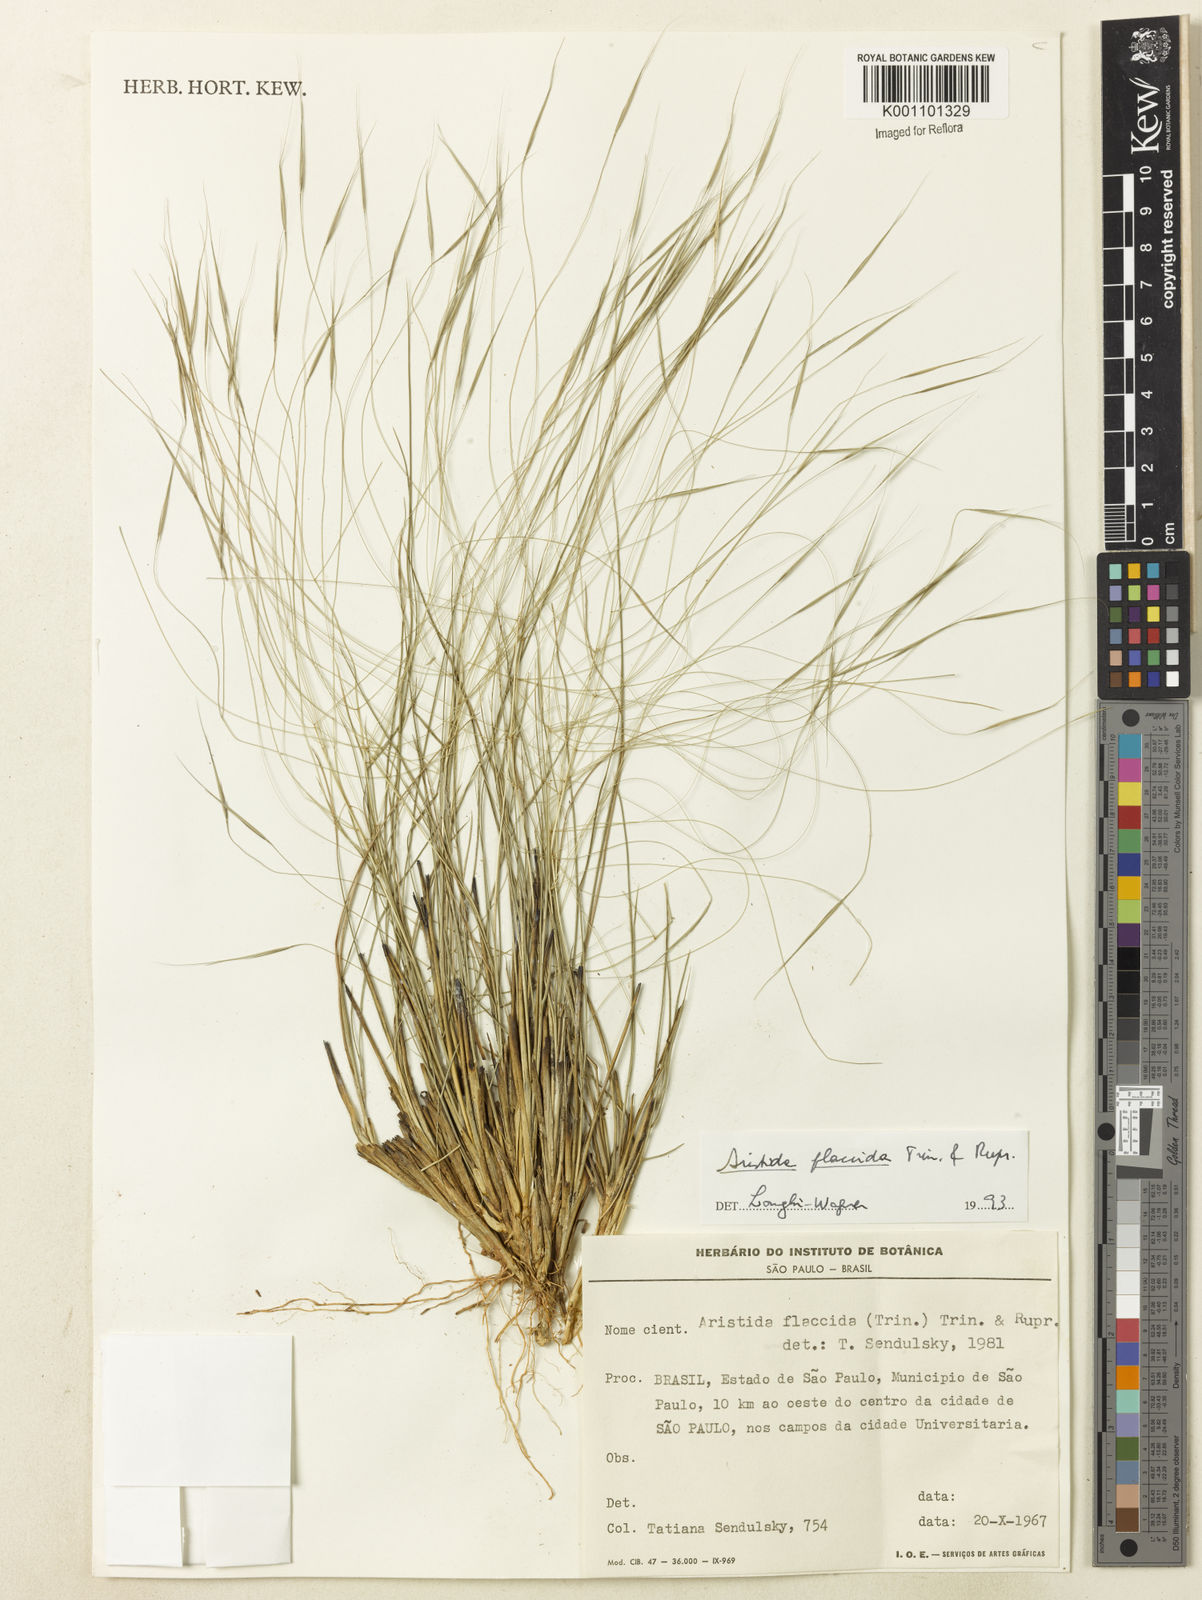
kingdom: Plantae
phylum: Tracheophyta
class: Liliopsida
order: Poales
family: Poaceae
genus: Aristida
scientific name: Aristida flaccida
